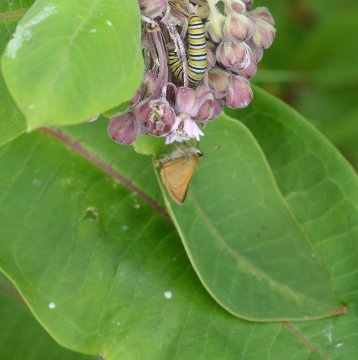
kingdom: Animalia
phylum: Arthropoda
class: Insecta
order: Lepidoptera
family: Hesperiidae
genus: Thymelicus
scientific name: Thymelicus lineola
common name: European Skipper
